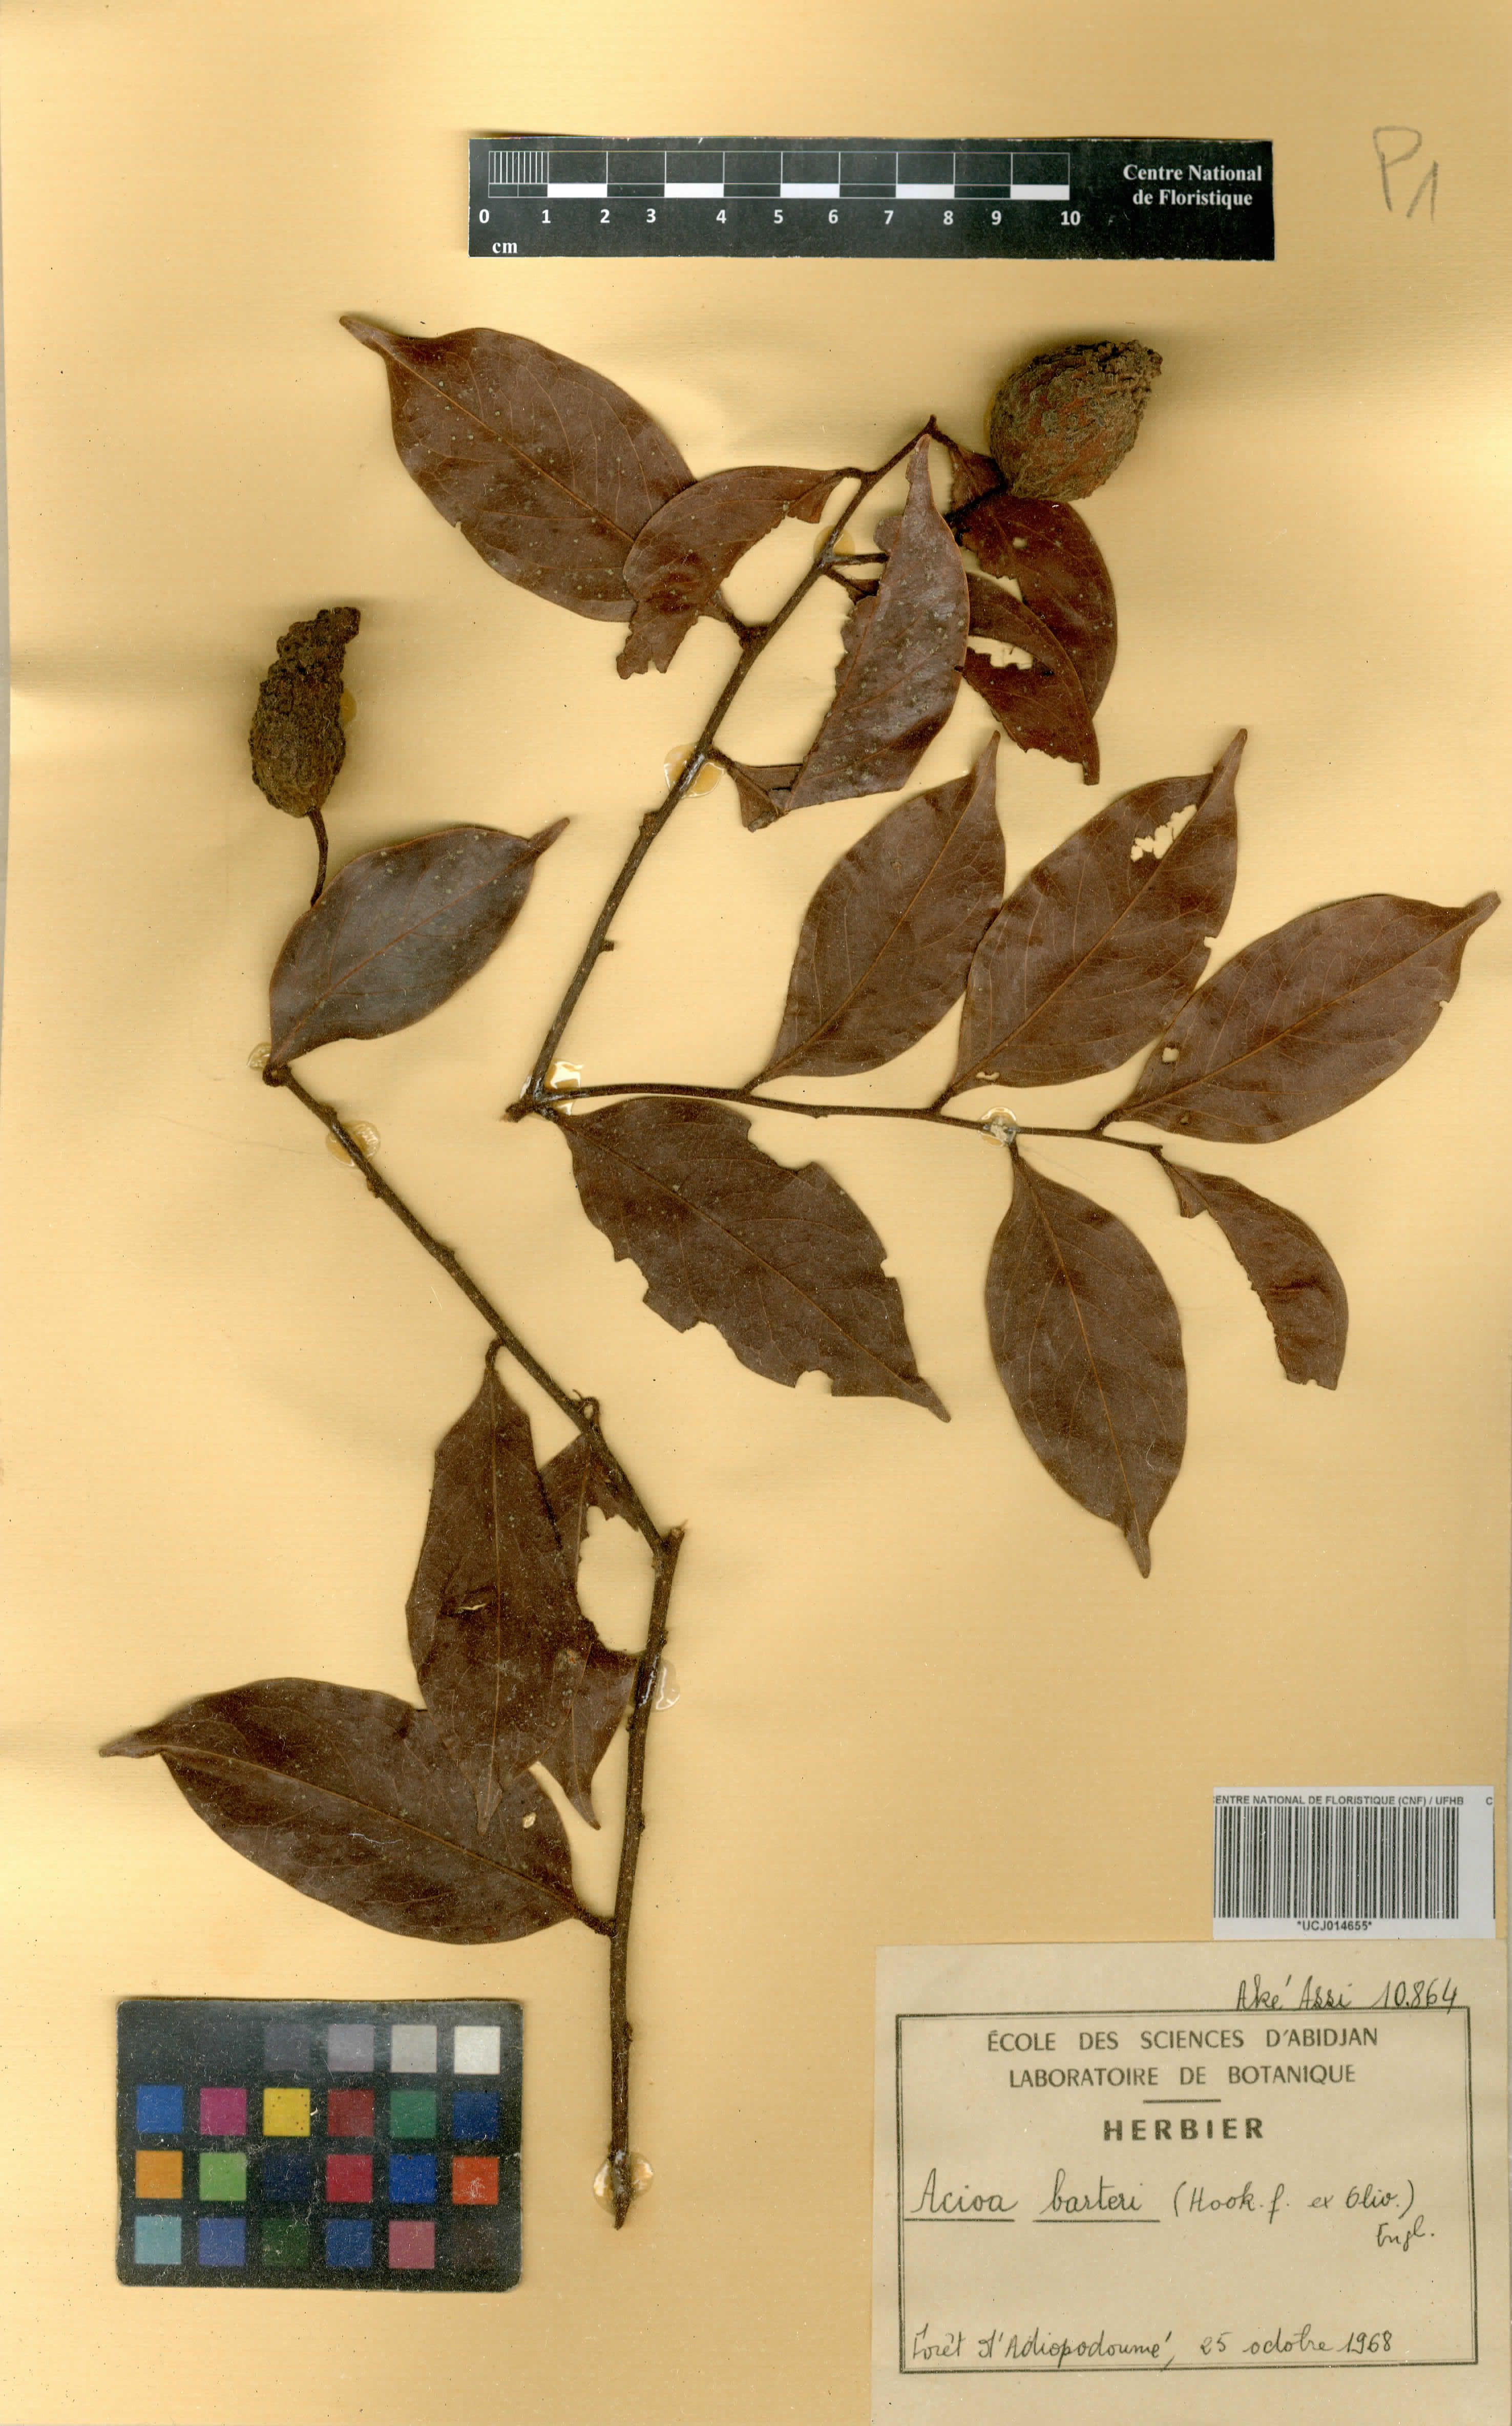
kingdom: Plantae
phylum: Tracheophyta
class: Magnoliopsida
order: Malpighiales
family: Chrysobalanaceae
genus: Dactyladenia
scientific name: Dactyladenia barteri
